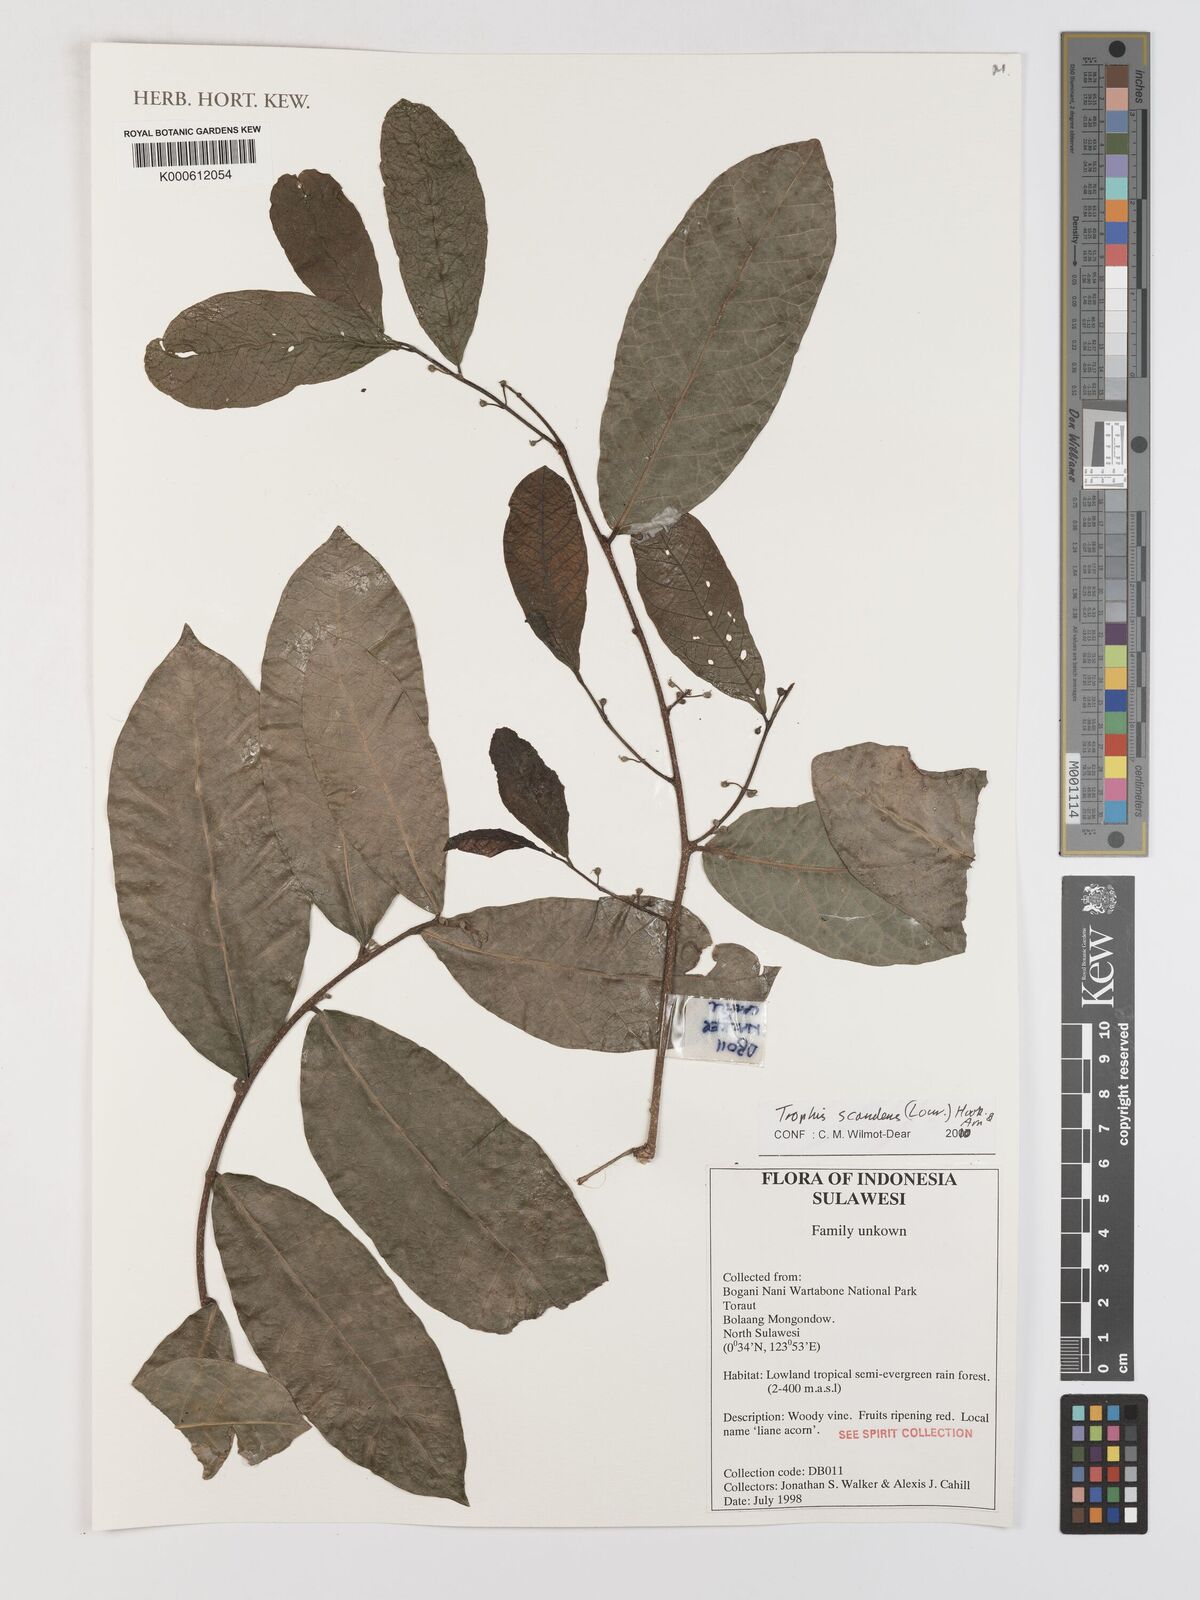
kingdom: Plantae
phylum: Tracheophyta
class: Magnoliopsida
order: Rosales
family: Moraceae
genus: Malaisia
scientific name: Malaisia scandens
